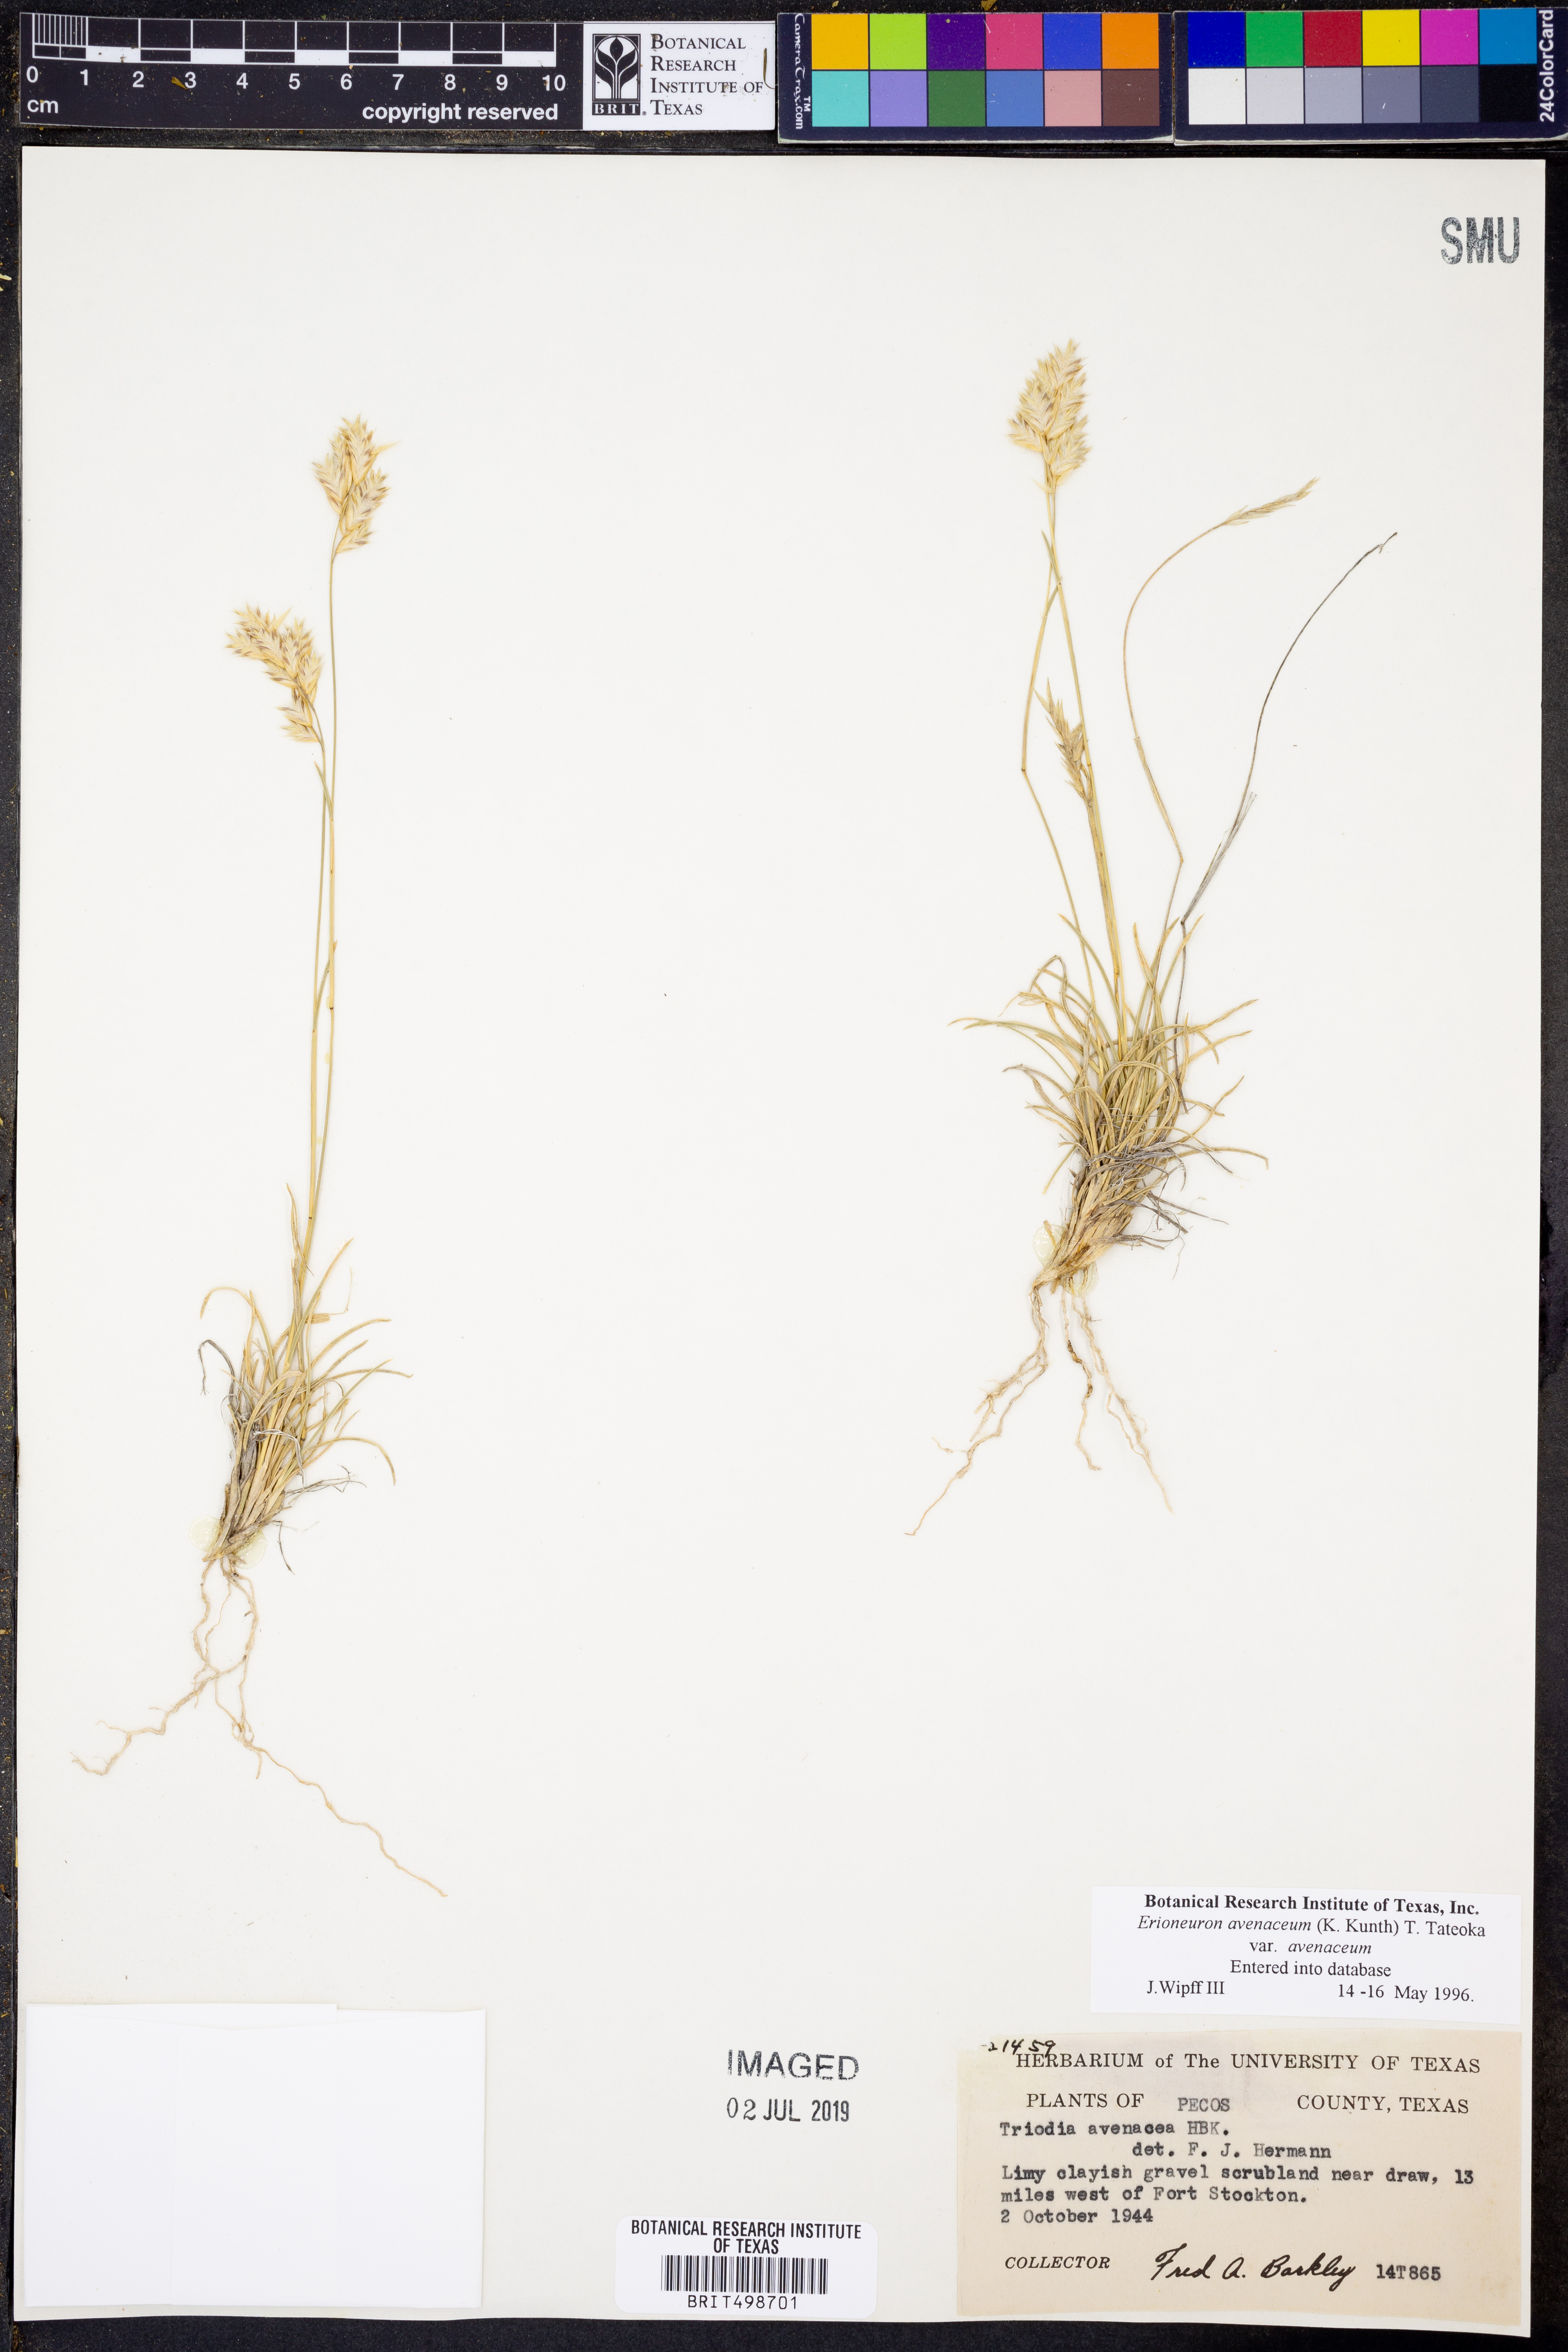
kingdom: Plantae
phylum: Tracheophyta
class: Liliopsida
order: Poales
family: Poaceae
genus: Erioneuron
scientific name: Erioneuron avenaceum
